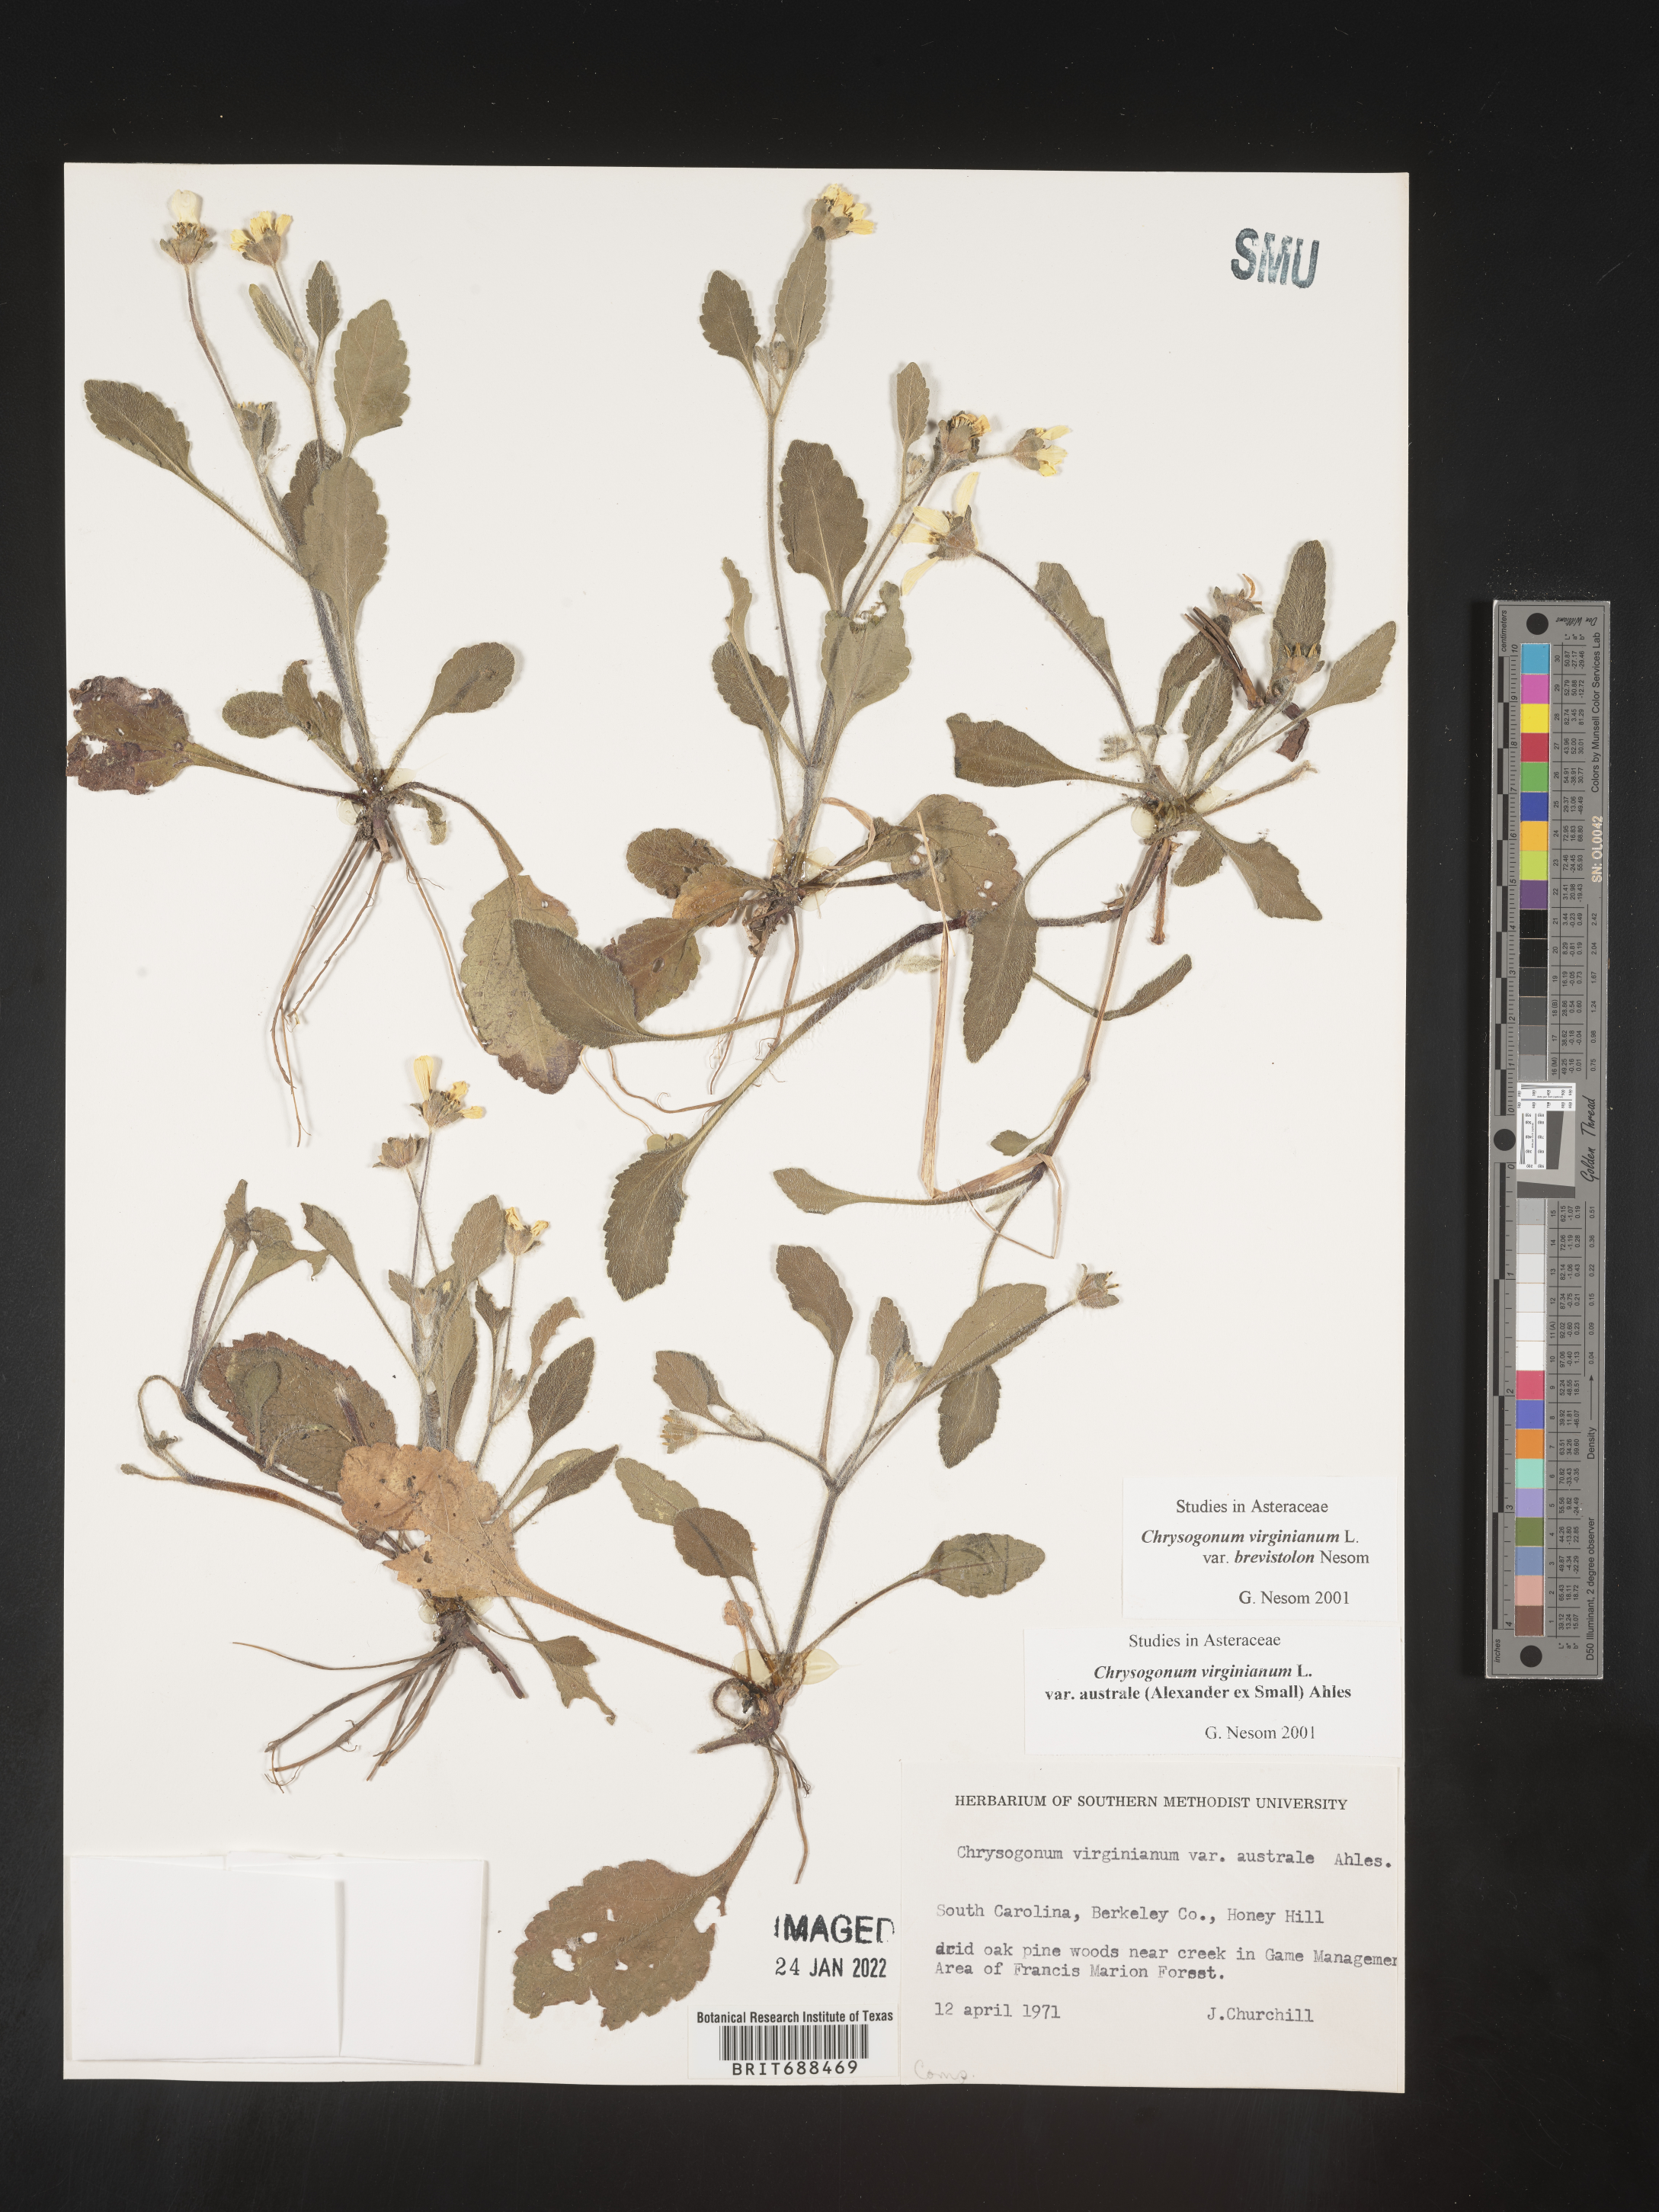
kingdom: Plantae
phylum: Tracheophyta
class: Magnoliopsida
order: Asterales
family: Asteraceae
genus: Chrysogonum
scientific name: Chrysogonum virginianum
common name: Golden-knee
